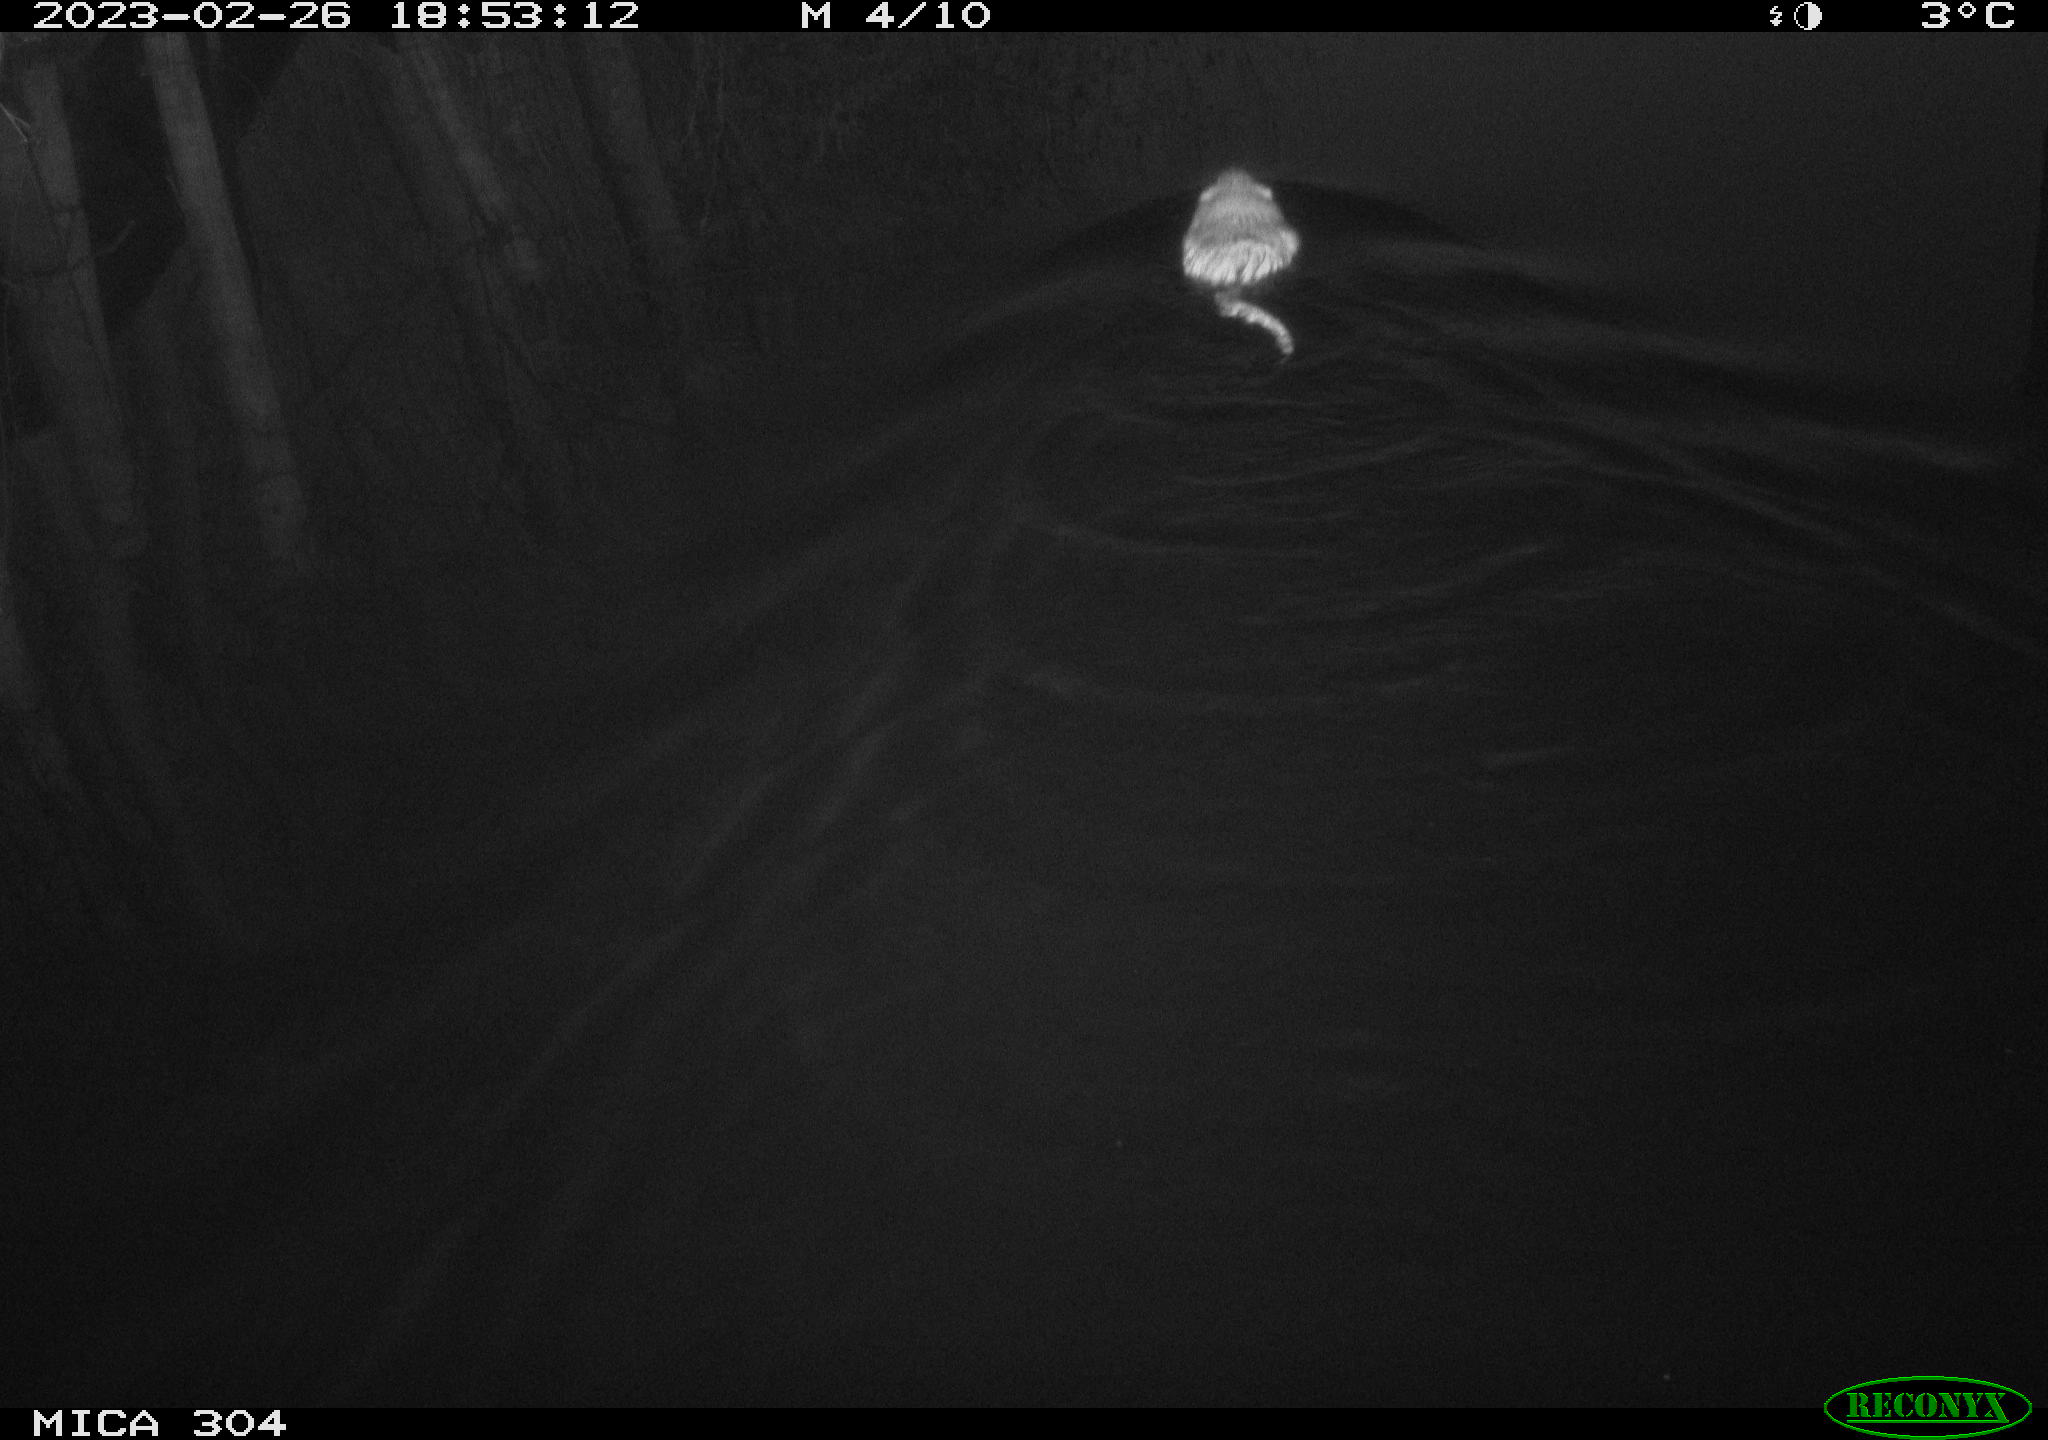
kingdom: Animalia
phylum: Chordata
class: Mammalia
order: Rodentia
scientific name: Rodentia
